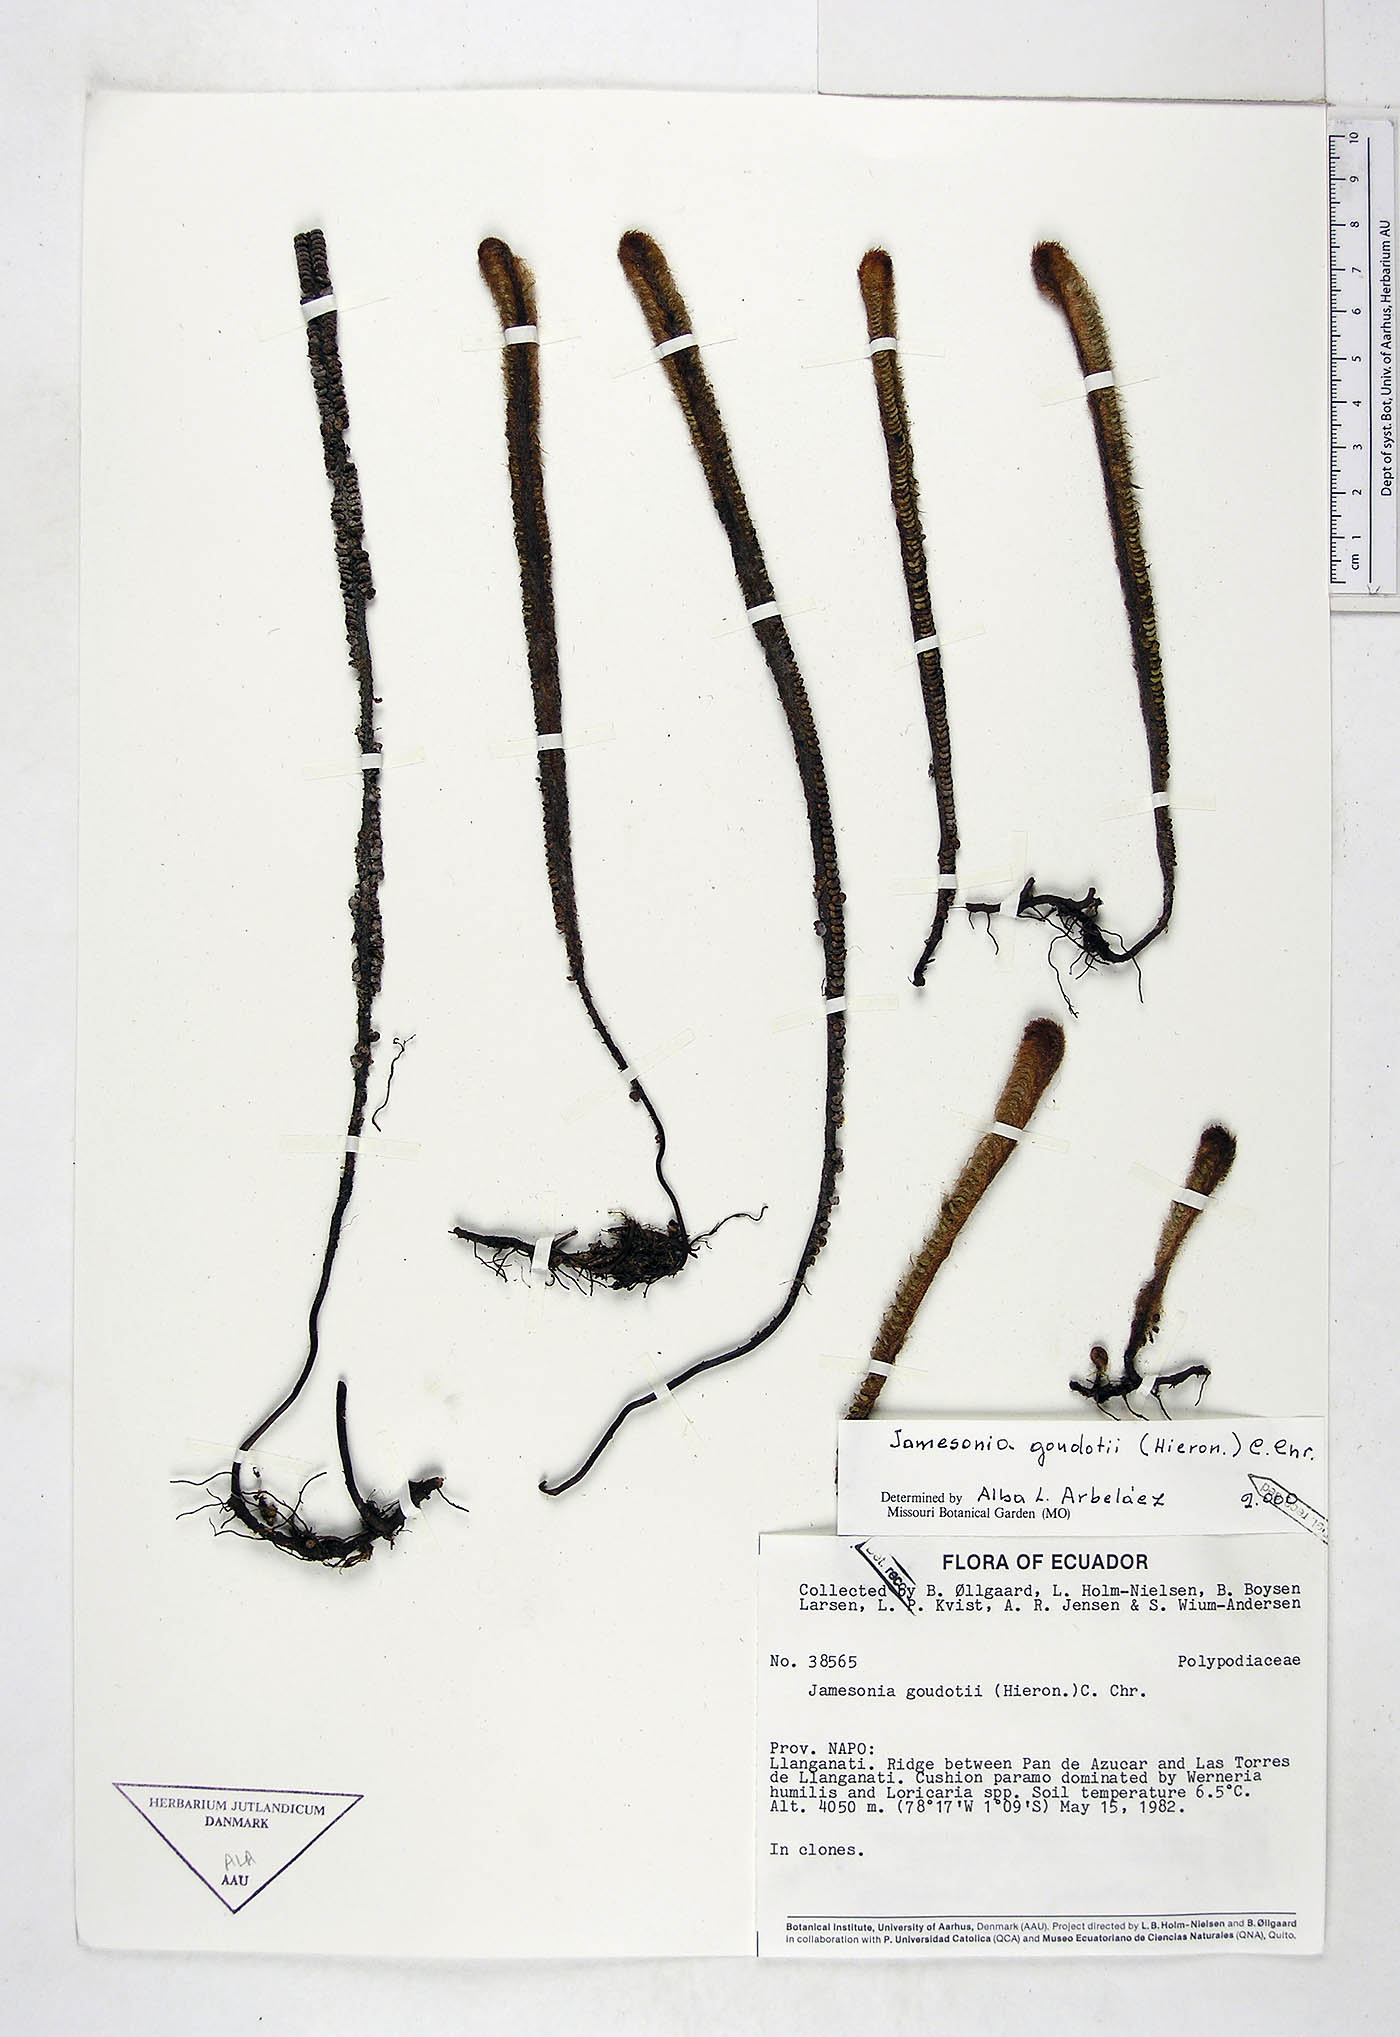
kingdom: Plantae
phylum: Tracheophyta
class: Polypodiopsida
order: Polypodiales
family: Pteridaceae
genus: Jamesonia
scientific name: Jamesonia goudotii
